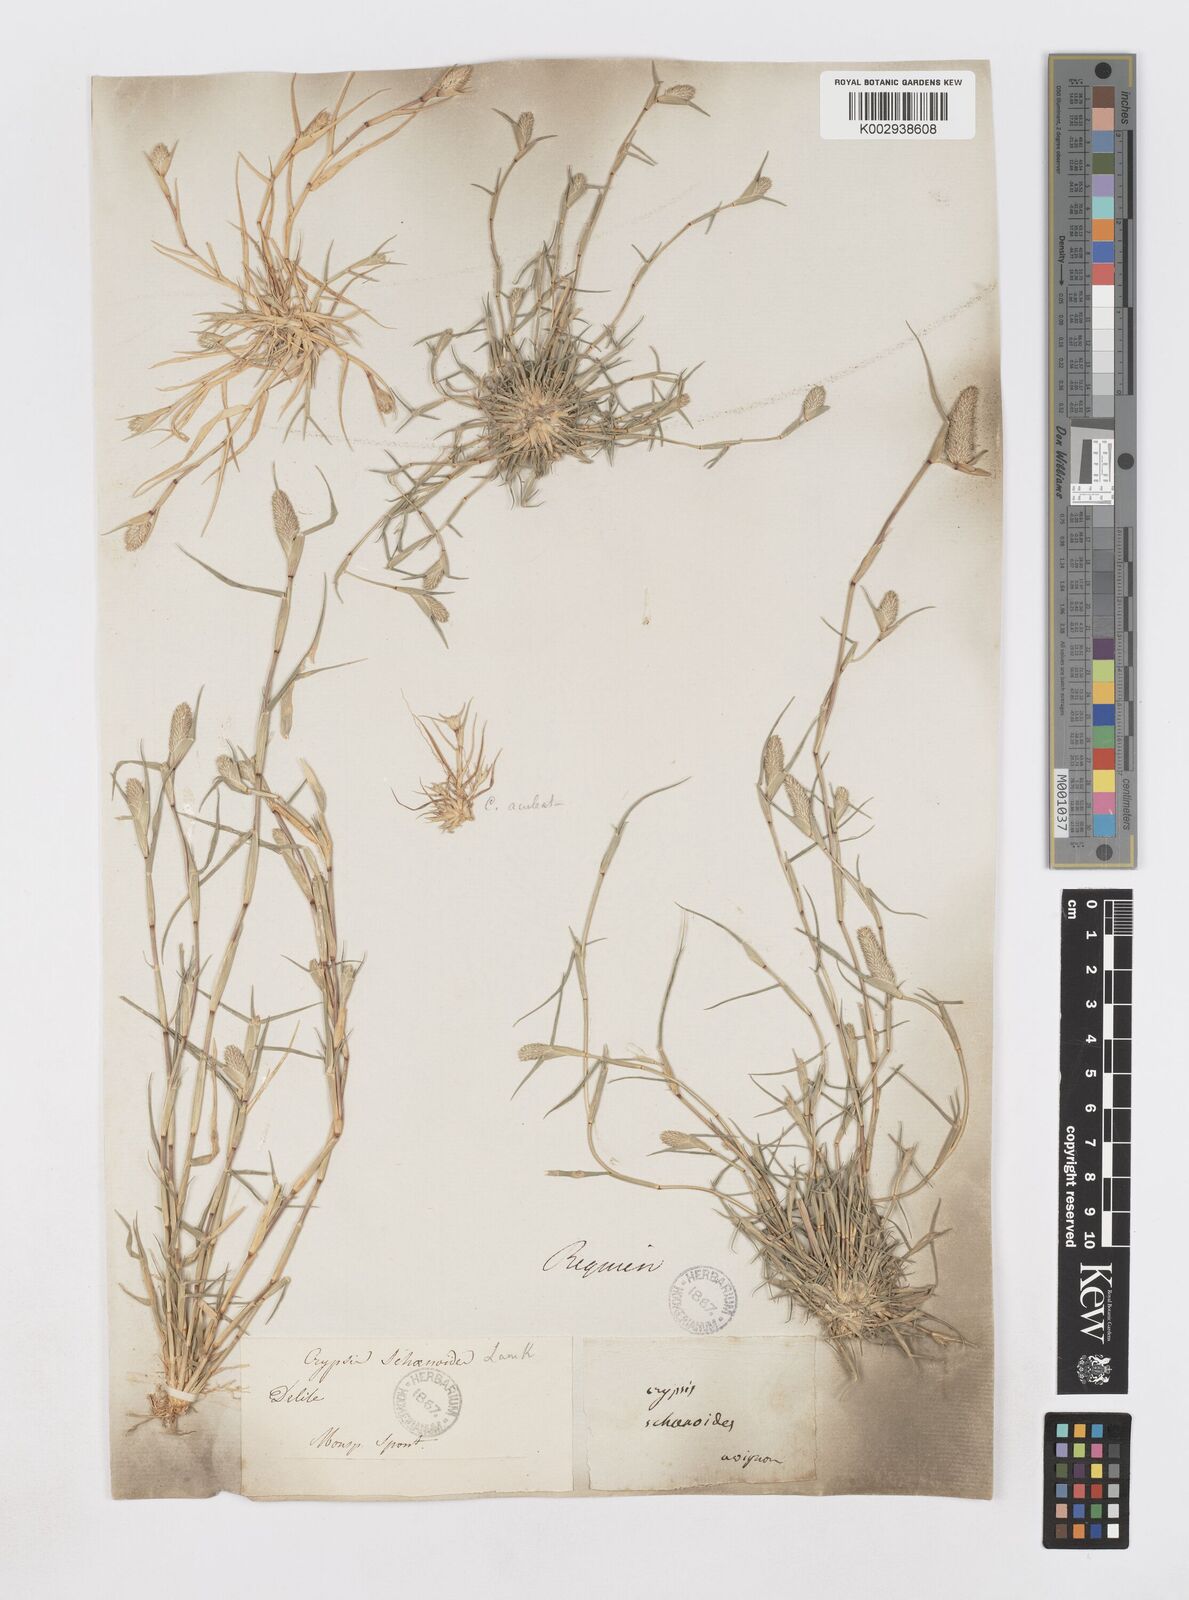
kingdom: Plantae
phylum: Tracheophyta
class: Liliopsida
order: Poales
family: Poaceae
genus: Sporobolus
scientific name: Sporobolus schoenoides
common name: Rush-like timothy
